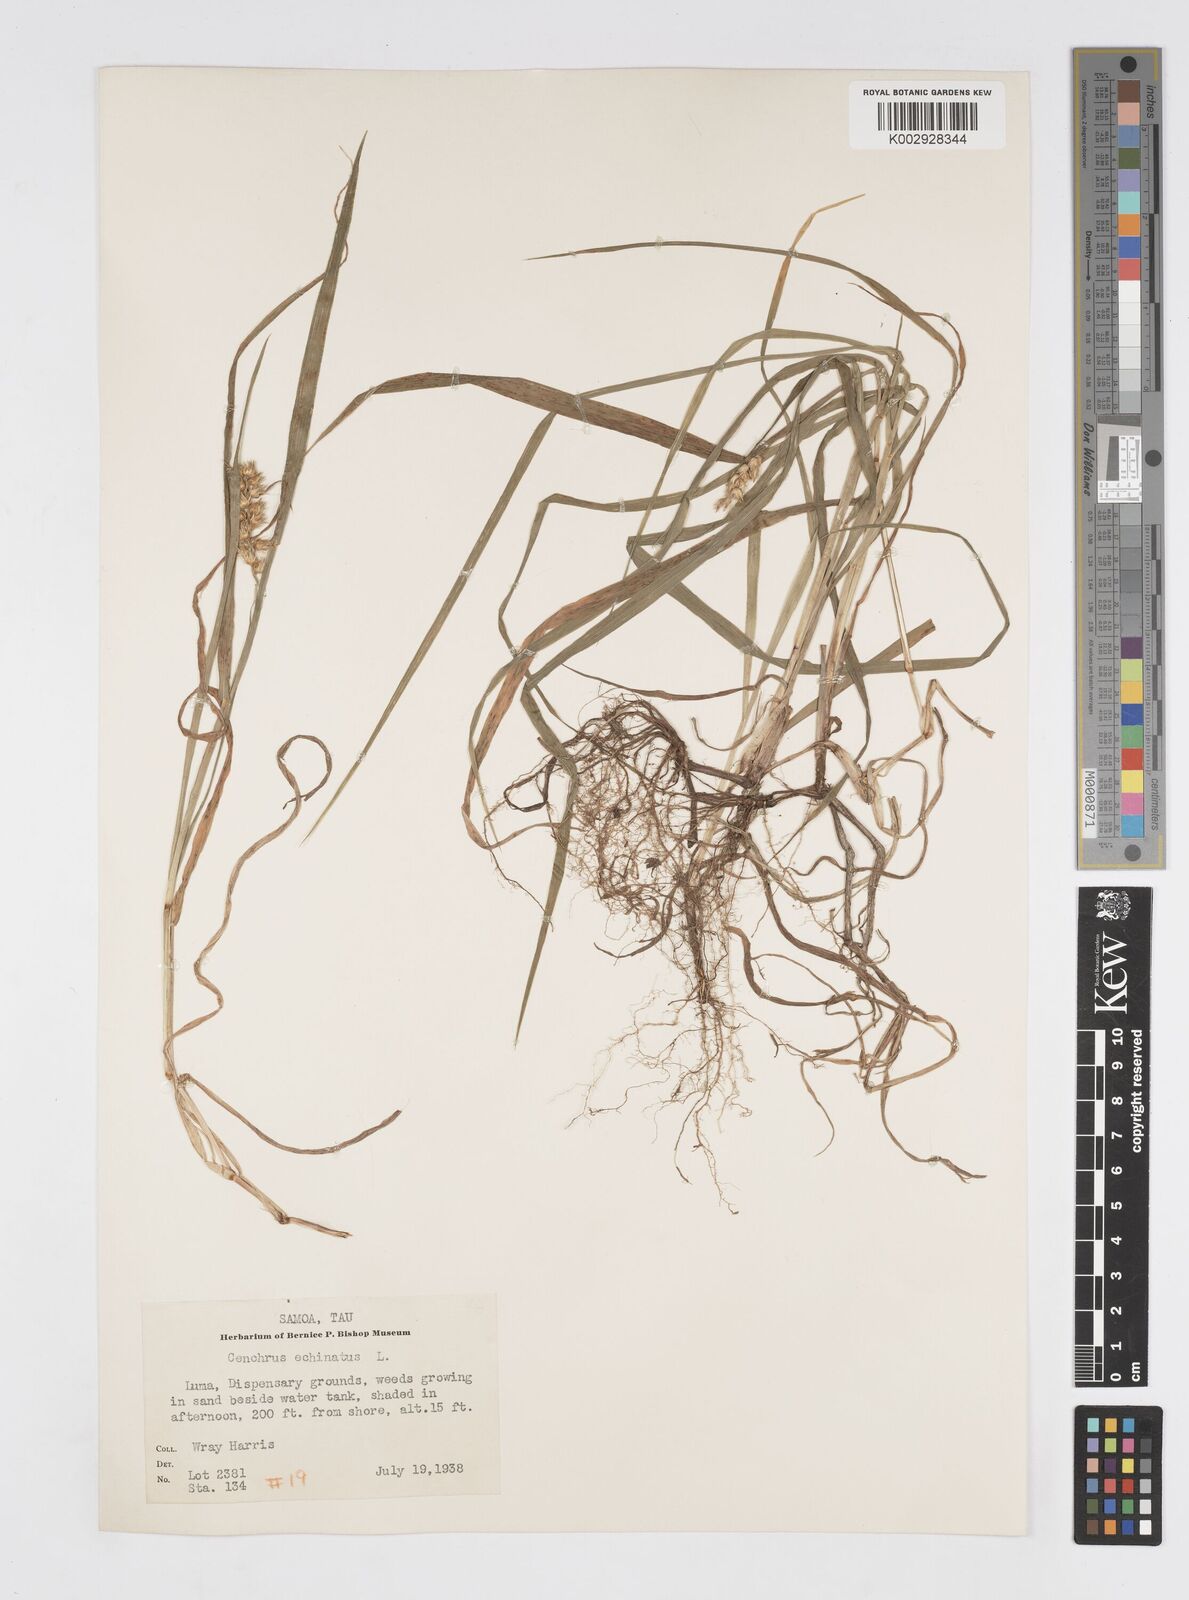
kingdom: Plantae
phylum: Tracheophyta
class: Liliopsida
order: Poales
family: Poaceae
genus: Cenchrus
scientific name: Cenchrus echinatus
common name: Southern sandbur
